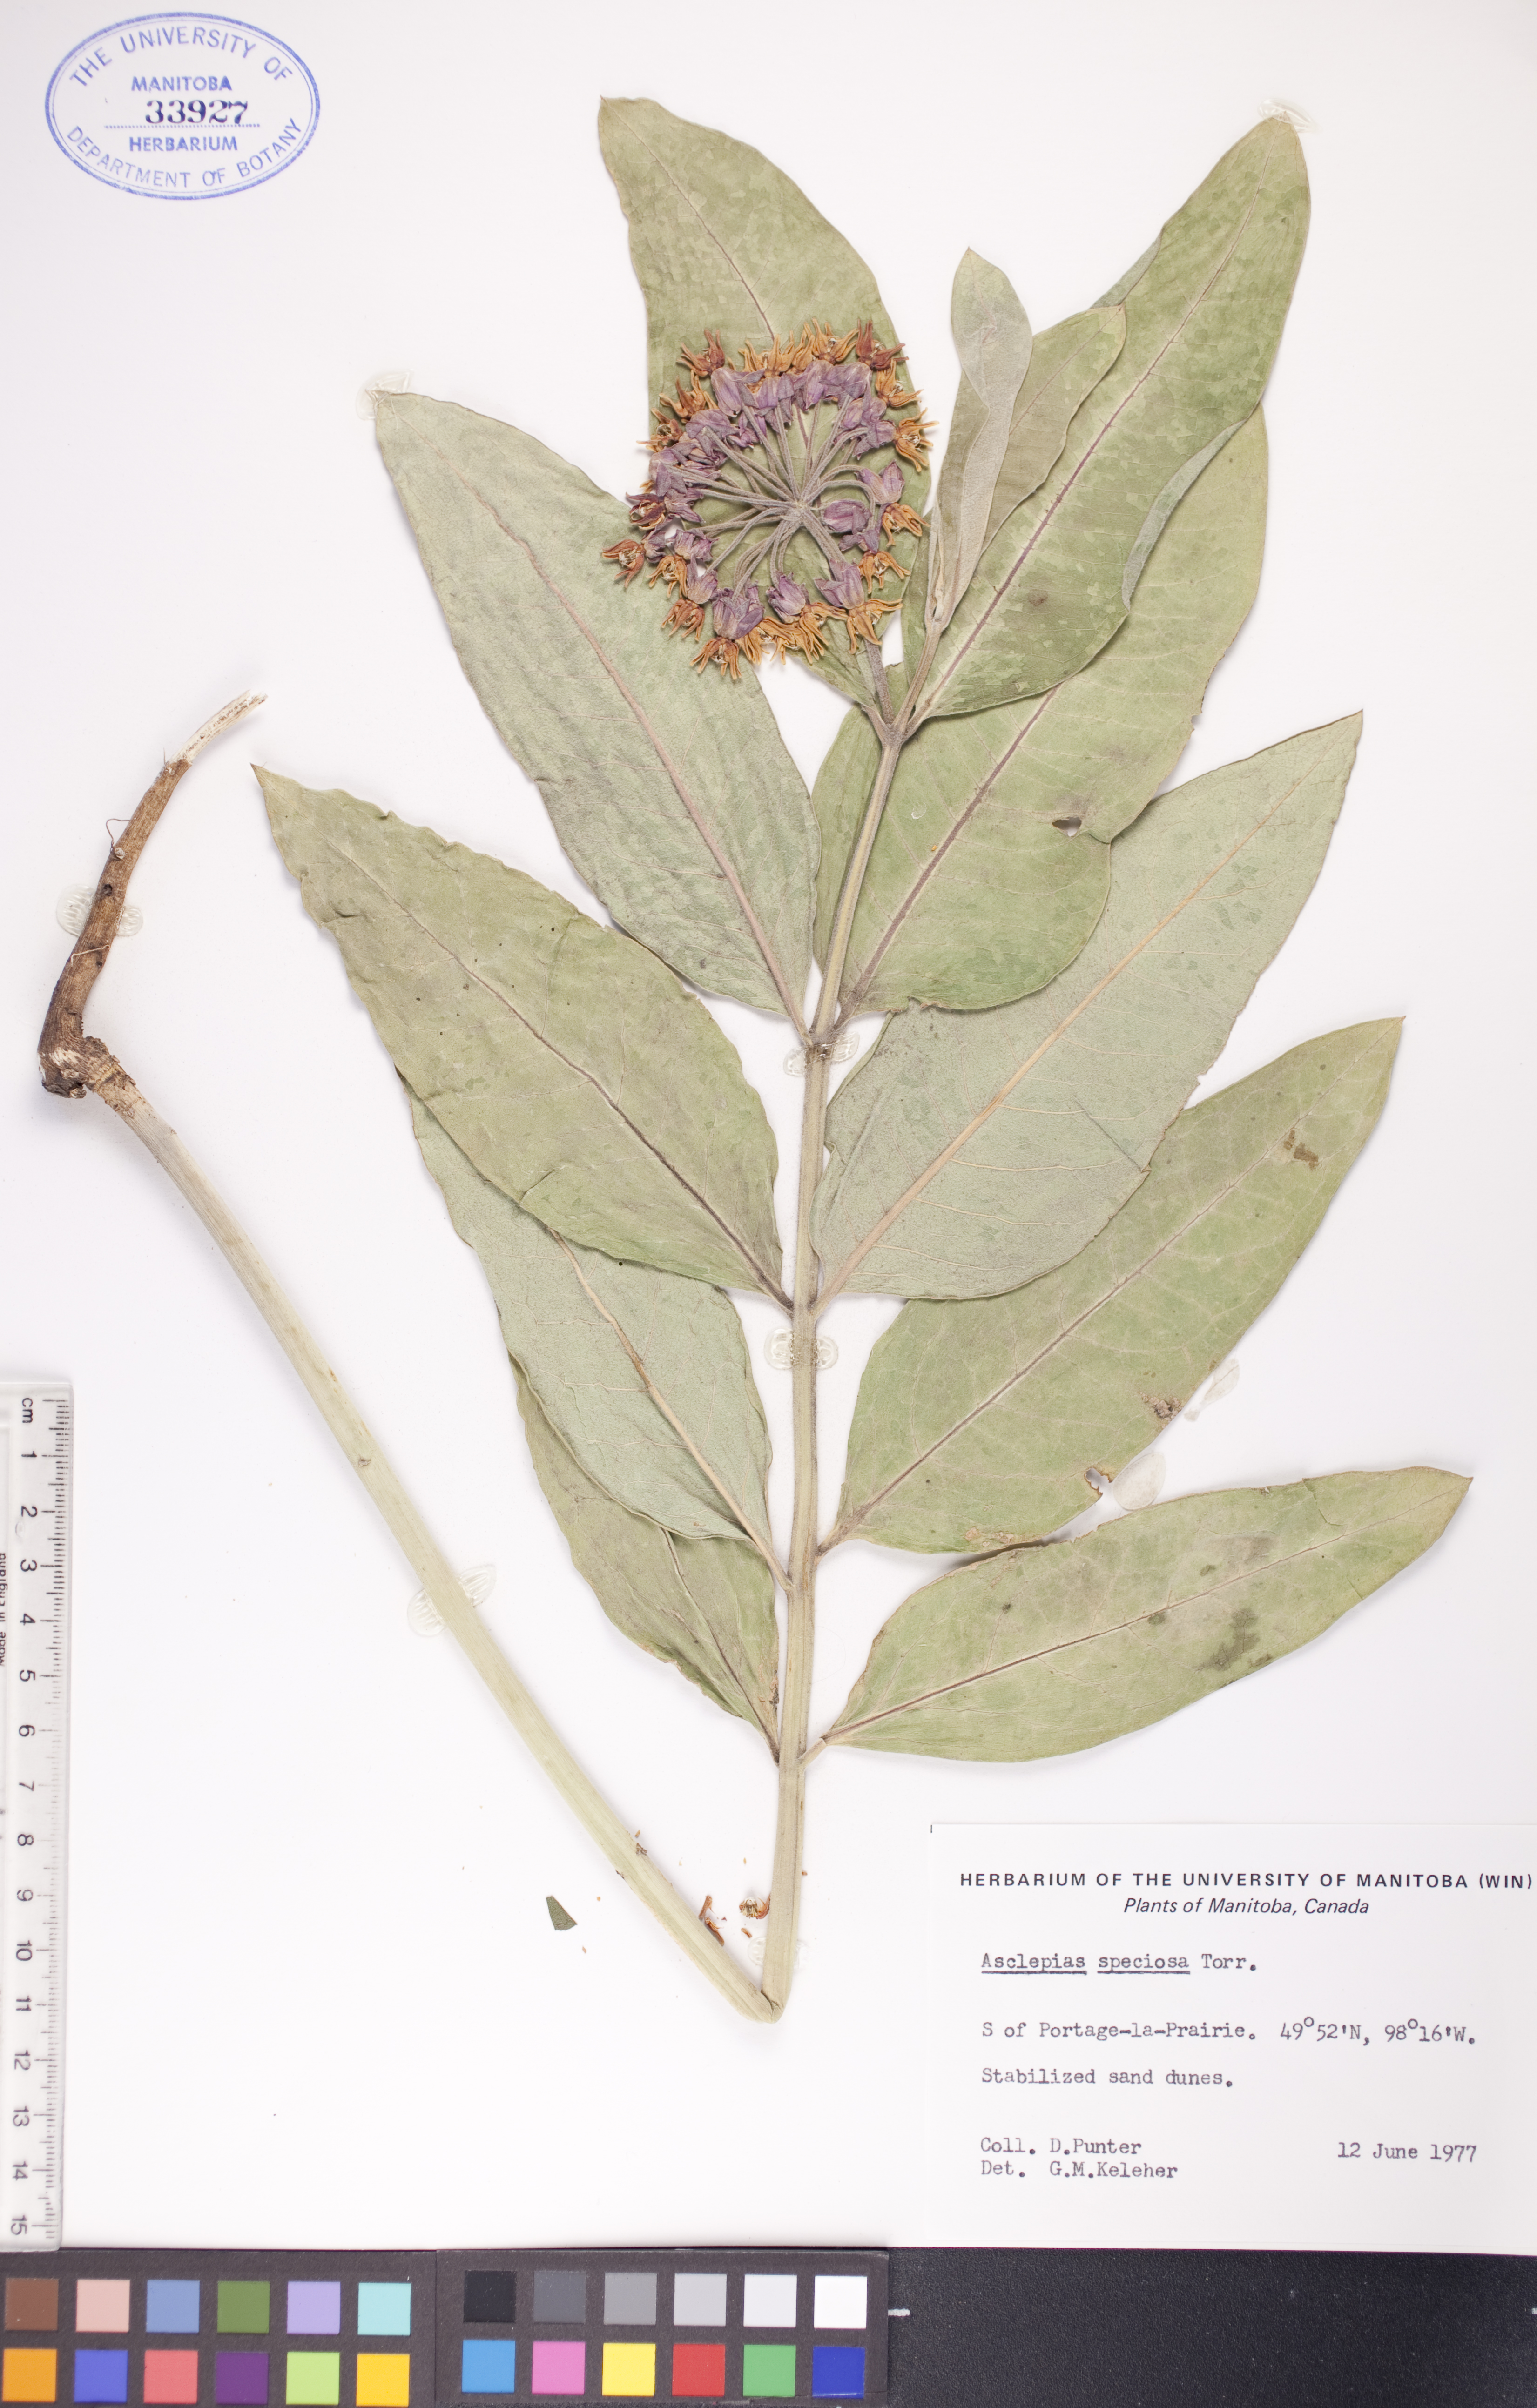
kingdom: Plantae
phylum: Tracheophyta
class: Magnoliopsida
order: Gentianales
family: Apocynaceae
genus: Asclepias
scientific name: Asclepias speciosa
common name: Showy milkweed
